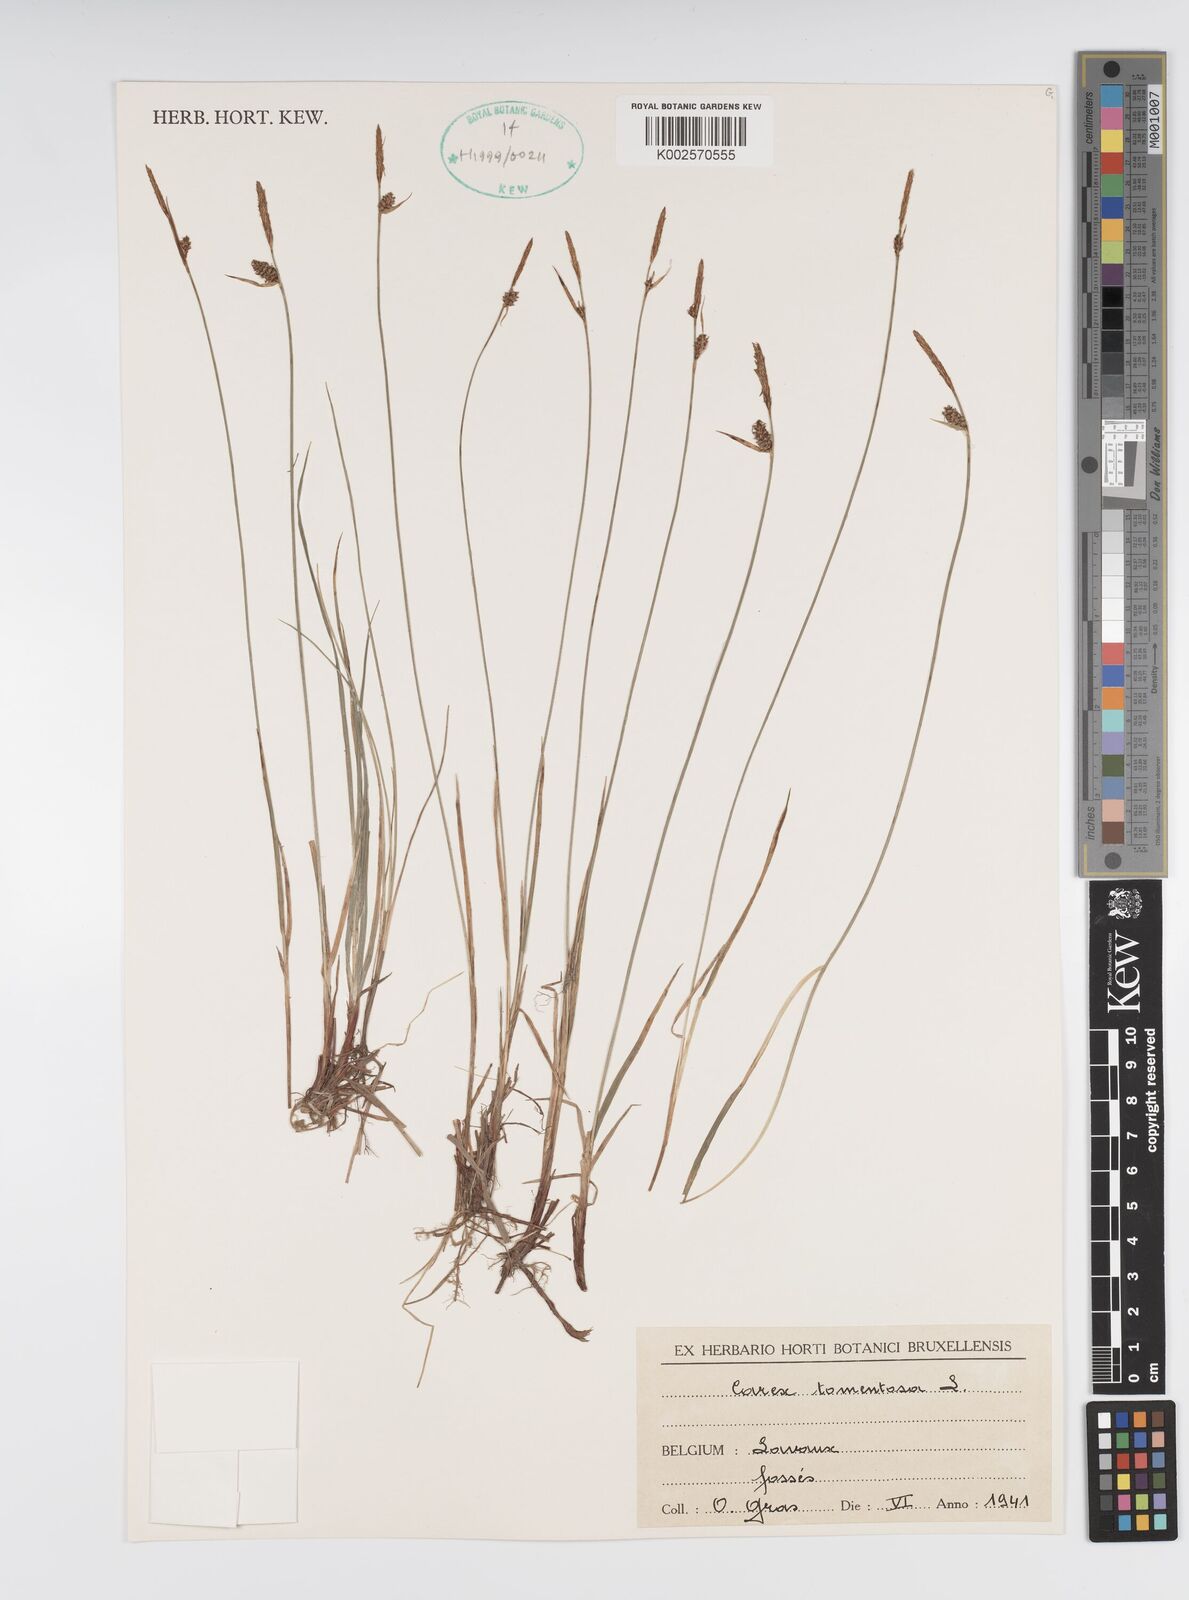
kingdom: Plantae
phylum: Tracheophyta
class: Liliopsida
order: Poales
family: Cyperaceae
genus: Carex
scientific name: Carex montana
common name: Soft-leaved sedge
